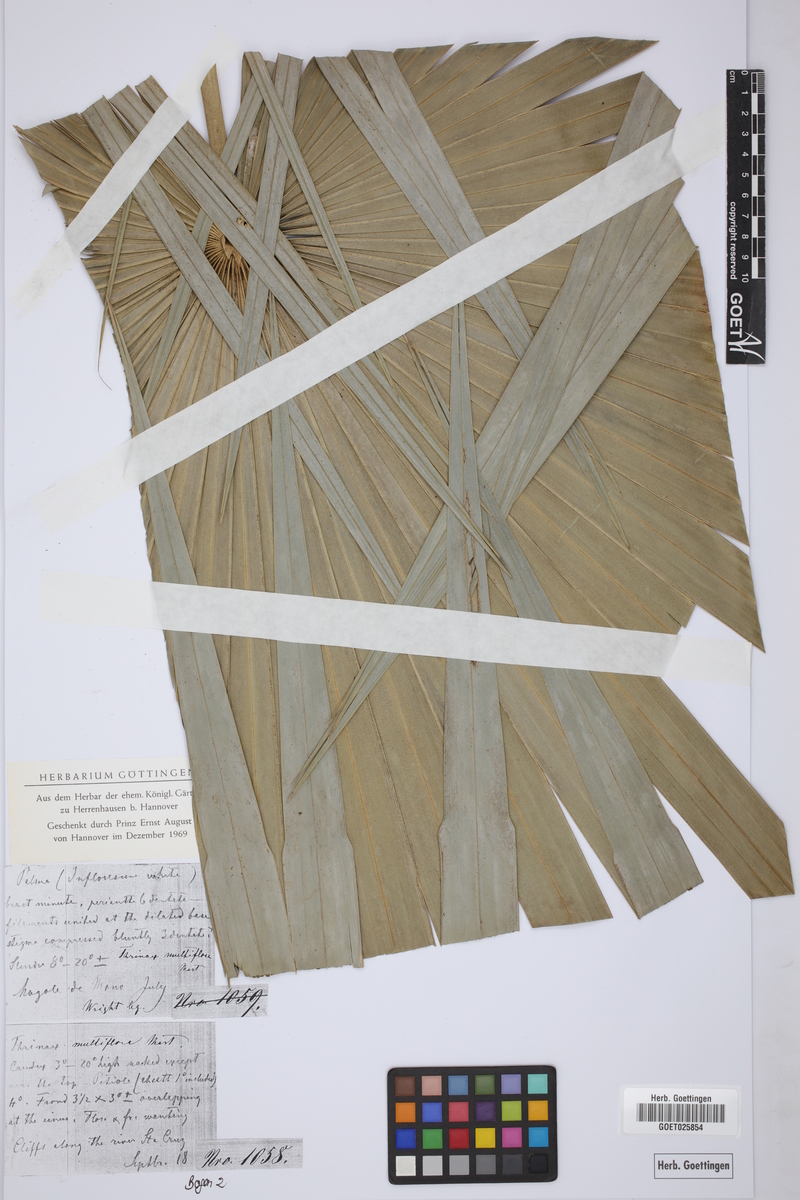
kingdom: Plantae
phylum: Tracheophyta
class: Liliopsida
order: Arecales
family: Arecaceae
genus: Coccothrinax
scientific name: Coccothrinax argentea
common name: Broom palm
